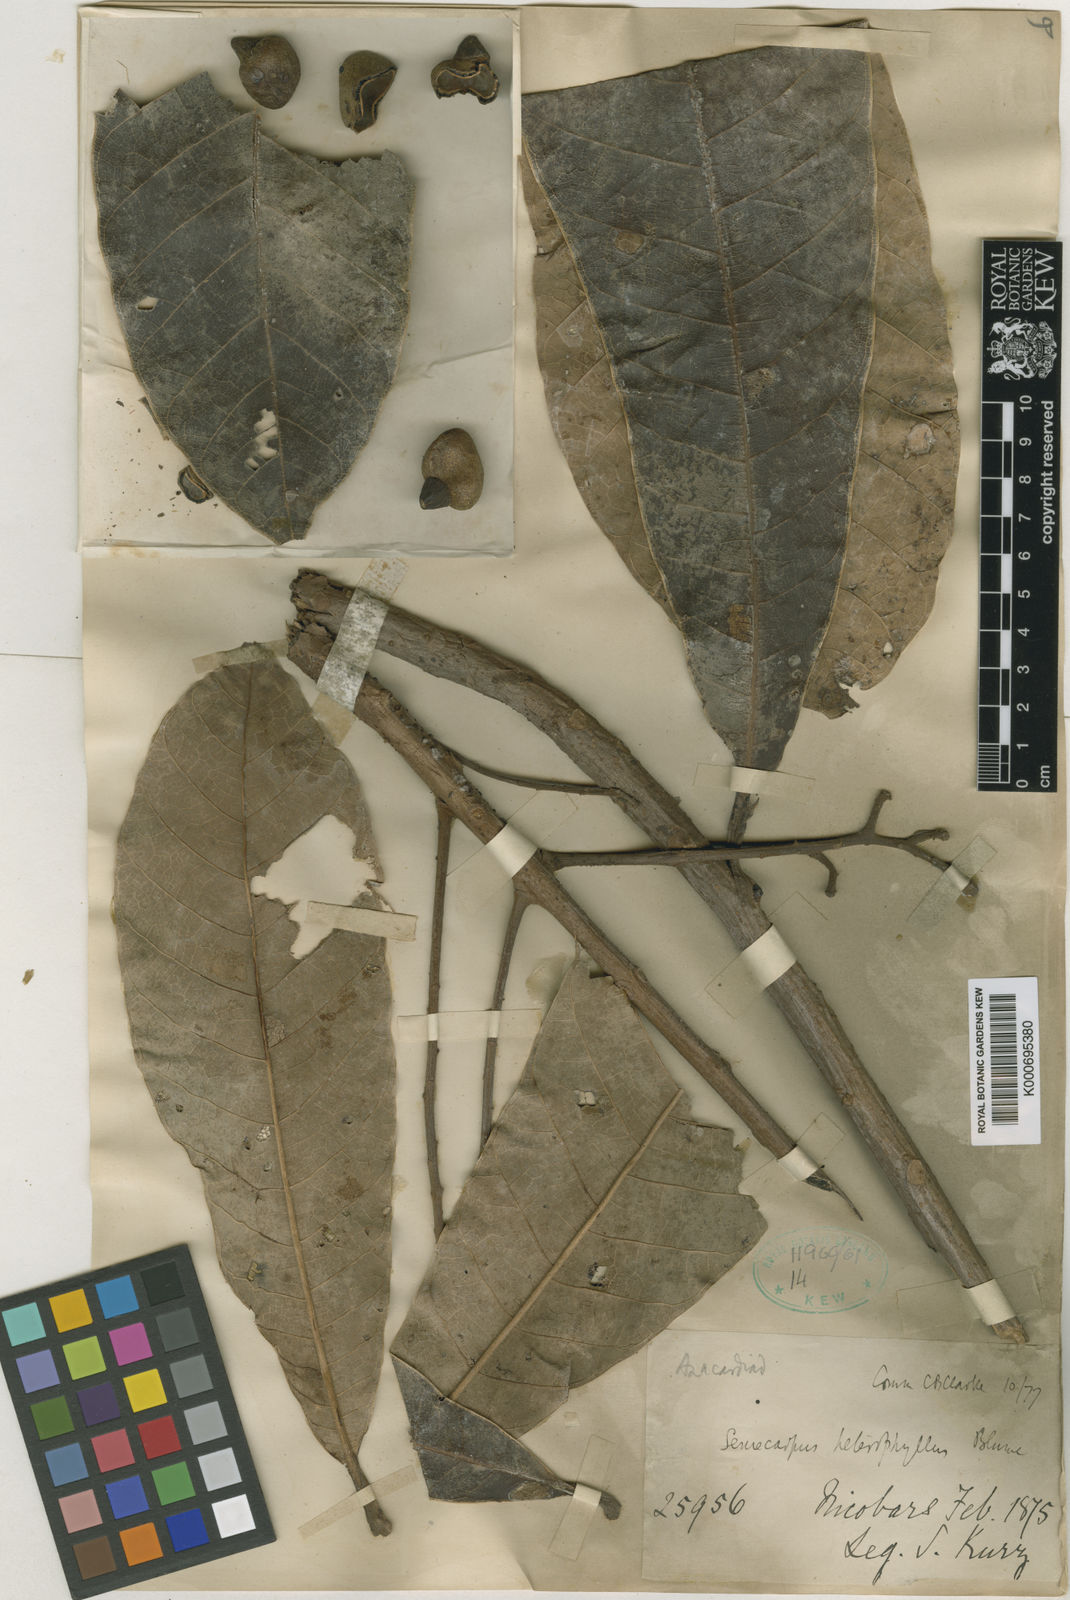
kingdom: Plantae
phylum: Tracheophyta
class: Magnoliopsida
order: Sapindales
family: Anacardiaceae
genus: Semecarpus
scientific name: Semecarpus kurzii
